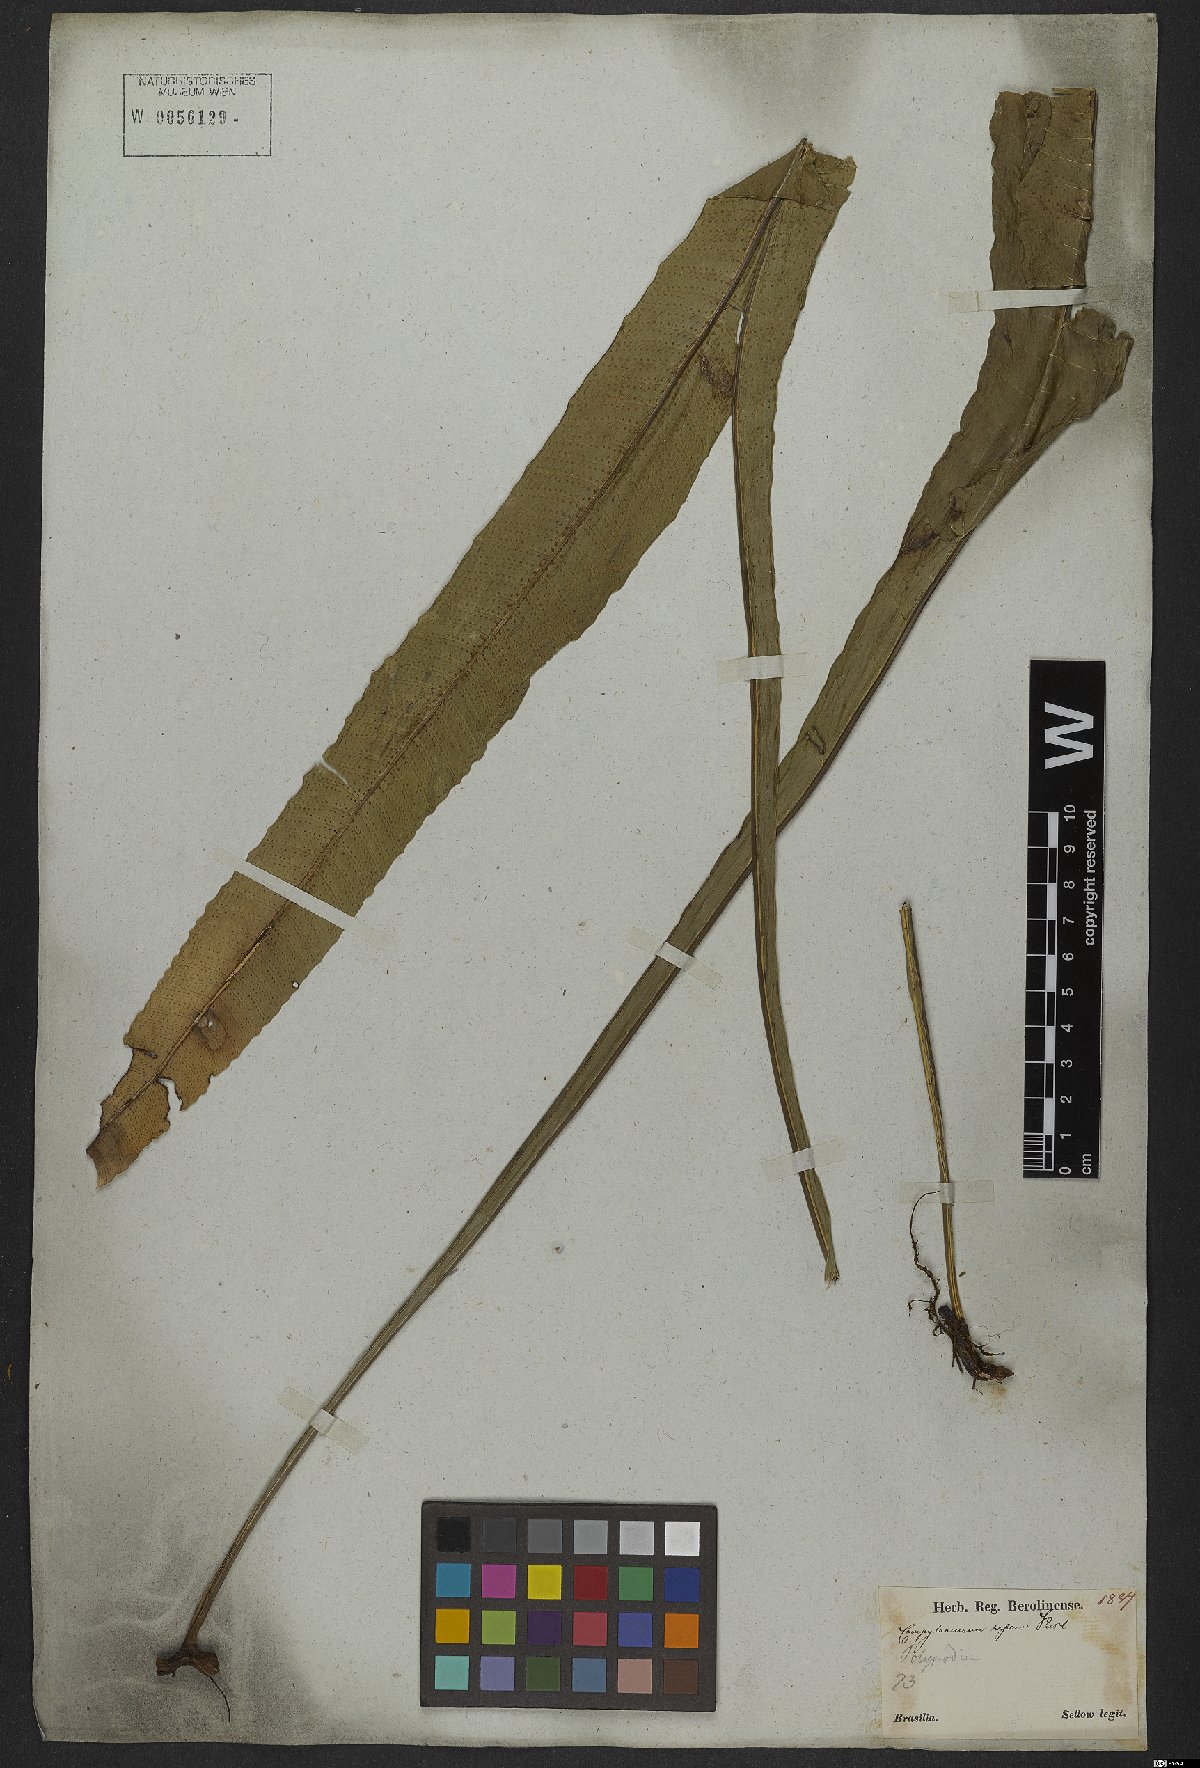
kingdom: Plantae
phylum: Tracheophyta
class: Polypodiopsida
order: Polypodiales
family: Polypodiaceae
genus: Campyloneurum
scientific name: Campyloneurum phyllitidis
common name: Cow-tongue fern
